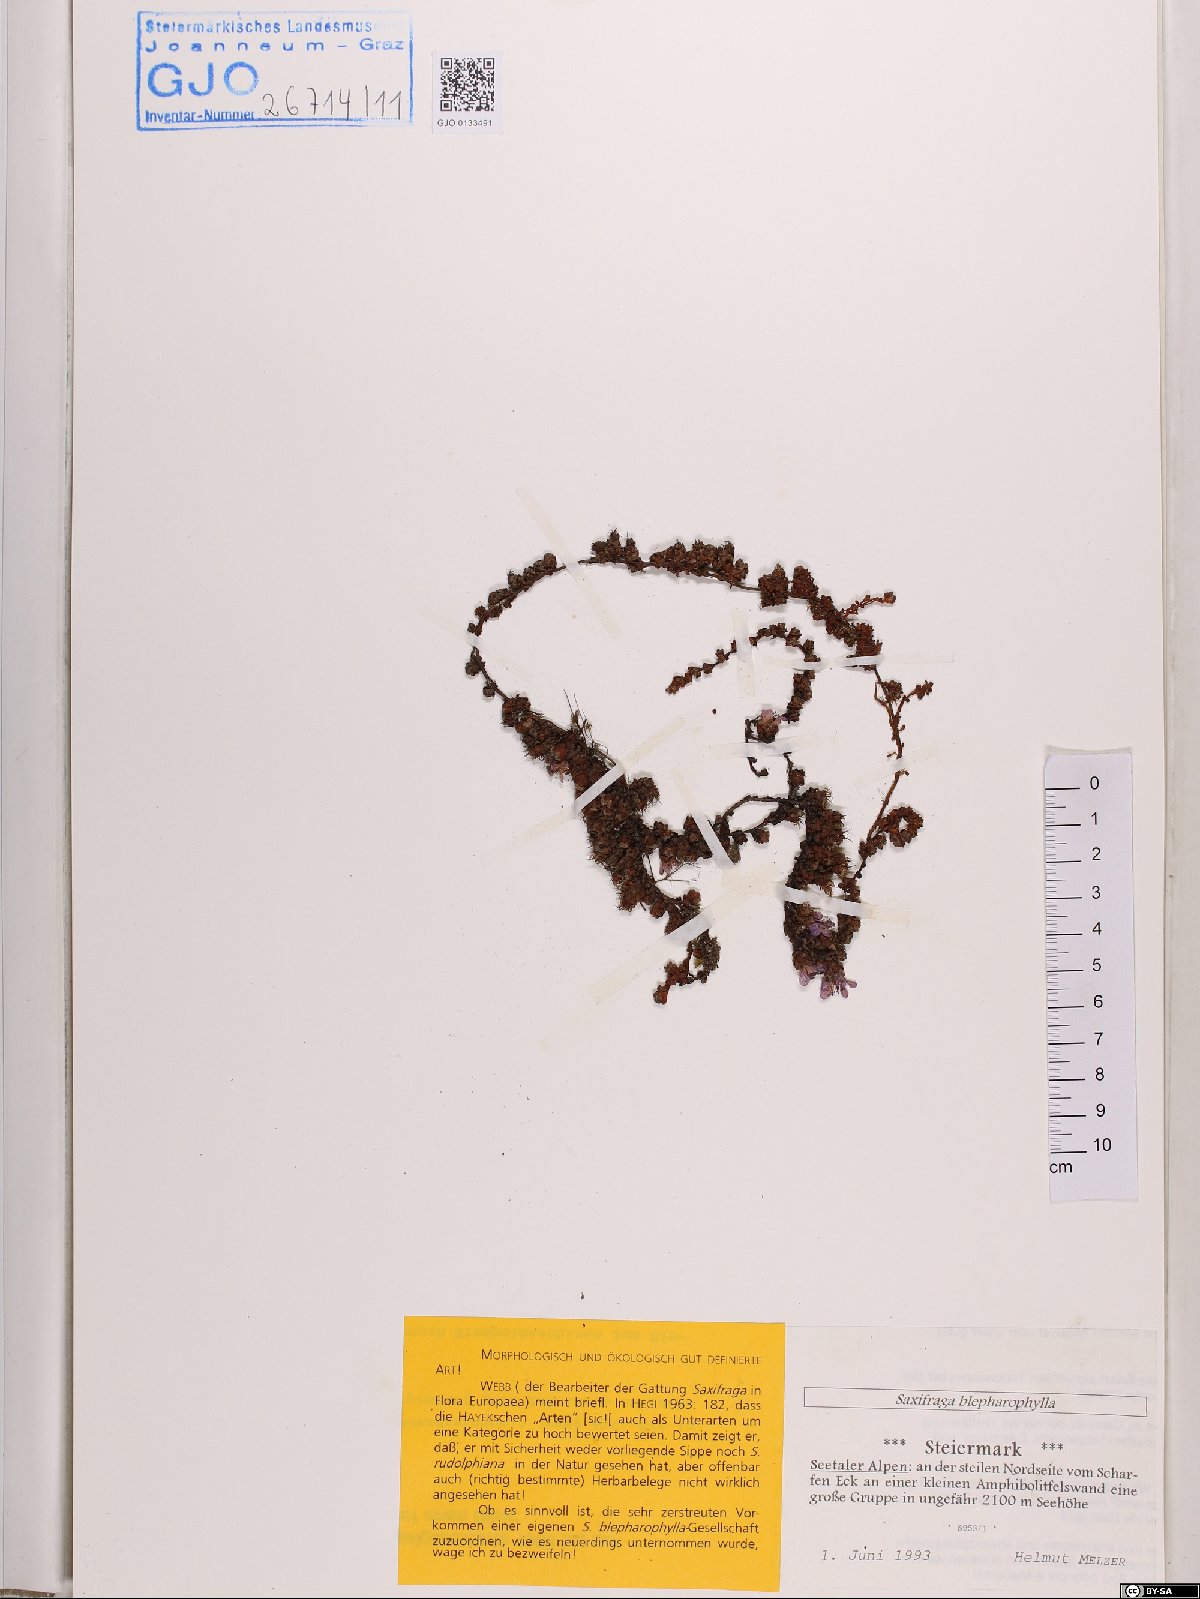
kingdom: Plantae
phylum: Tracheophyta
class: Magnoliopsida
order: Saxifragales
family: Saxifragaceae
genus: Saxifraga
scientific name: Saxifraga oppositifolia
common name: Purple saxifrage
